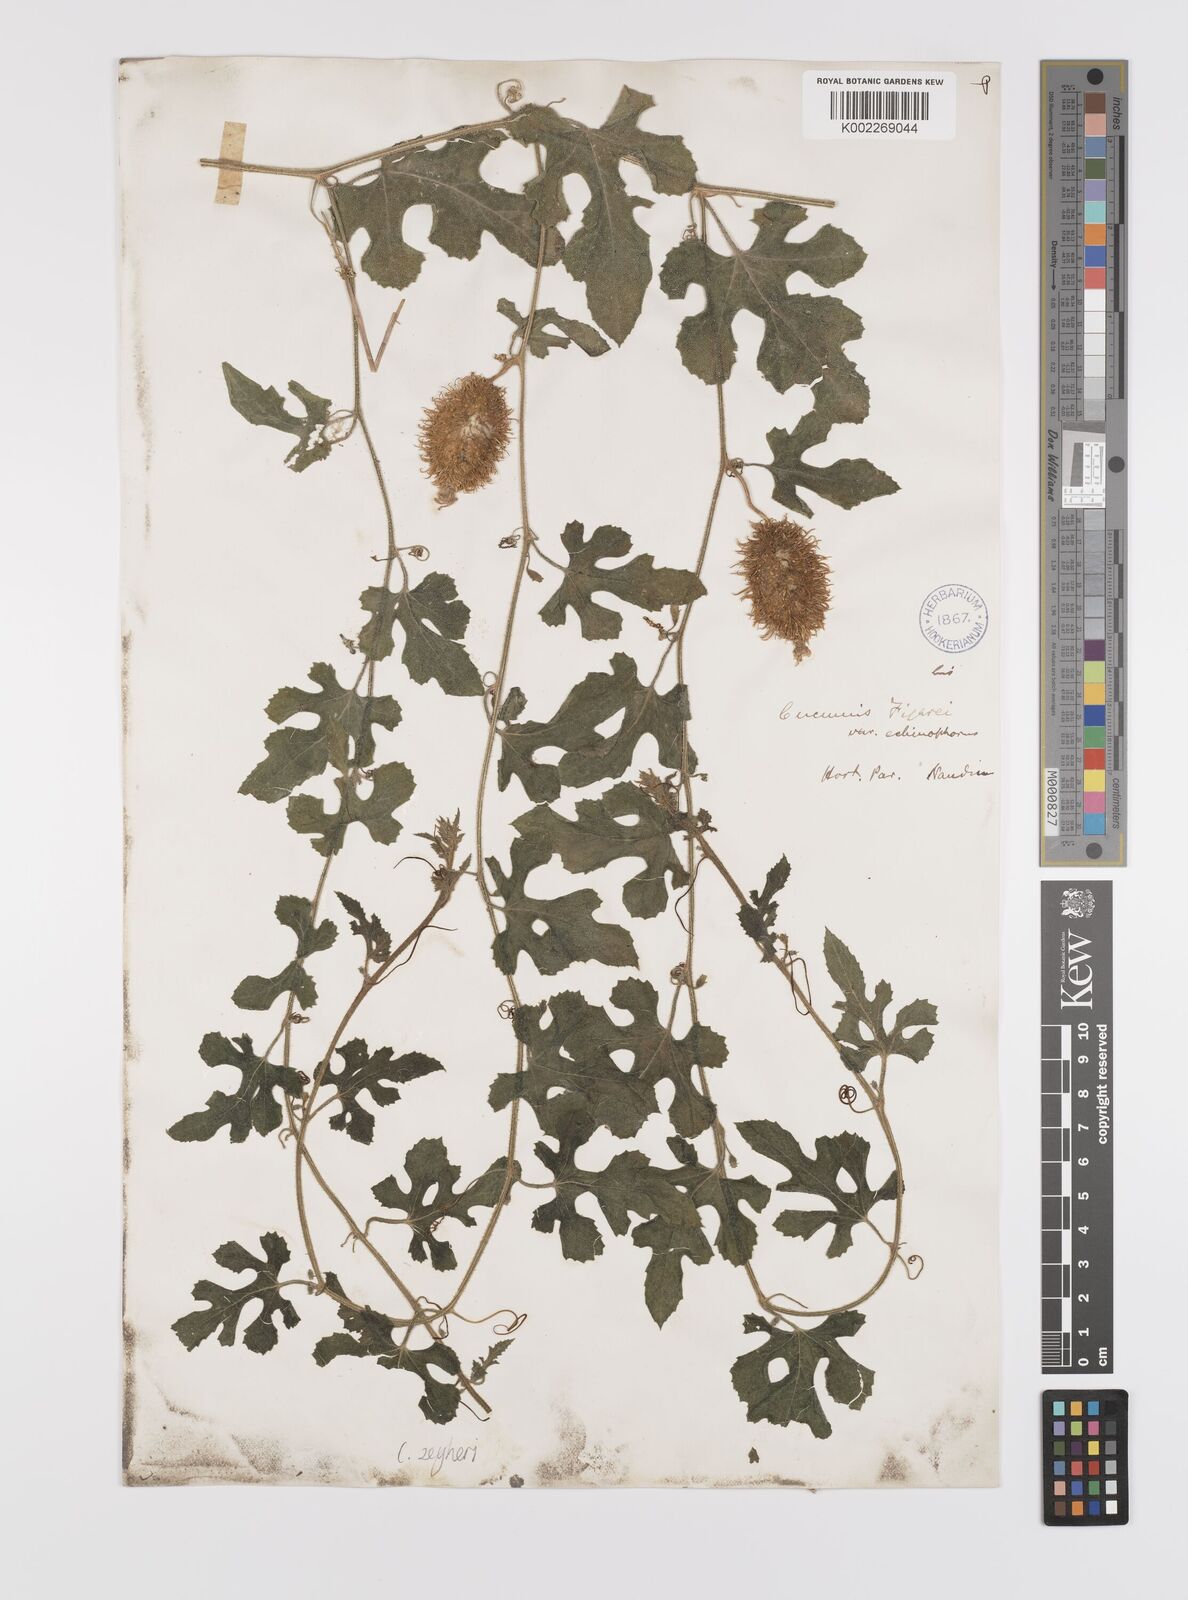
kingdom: Plantae
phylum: Tracheophyta
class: Magnoliopsida
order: Cucurbitales
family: Cucurbitaceae
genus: Cucumis
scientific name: Cucumis sativus
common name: Cucumber
